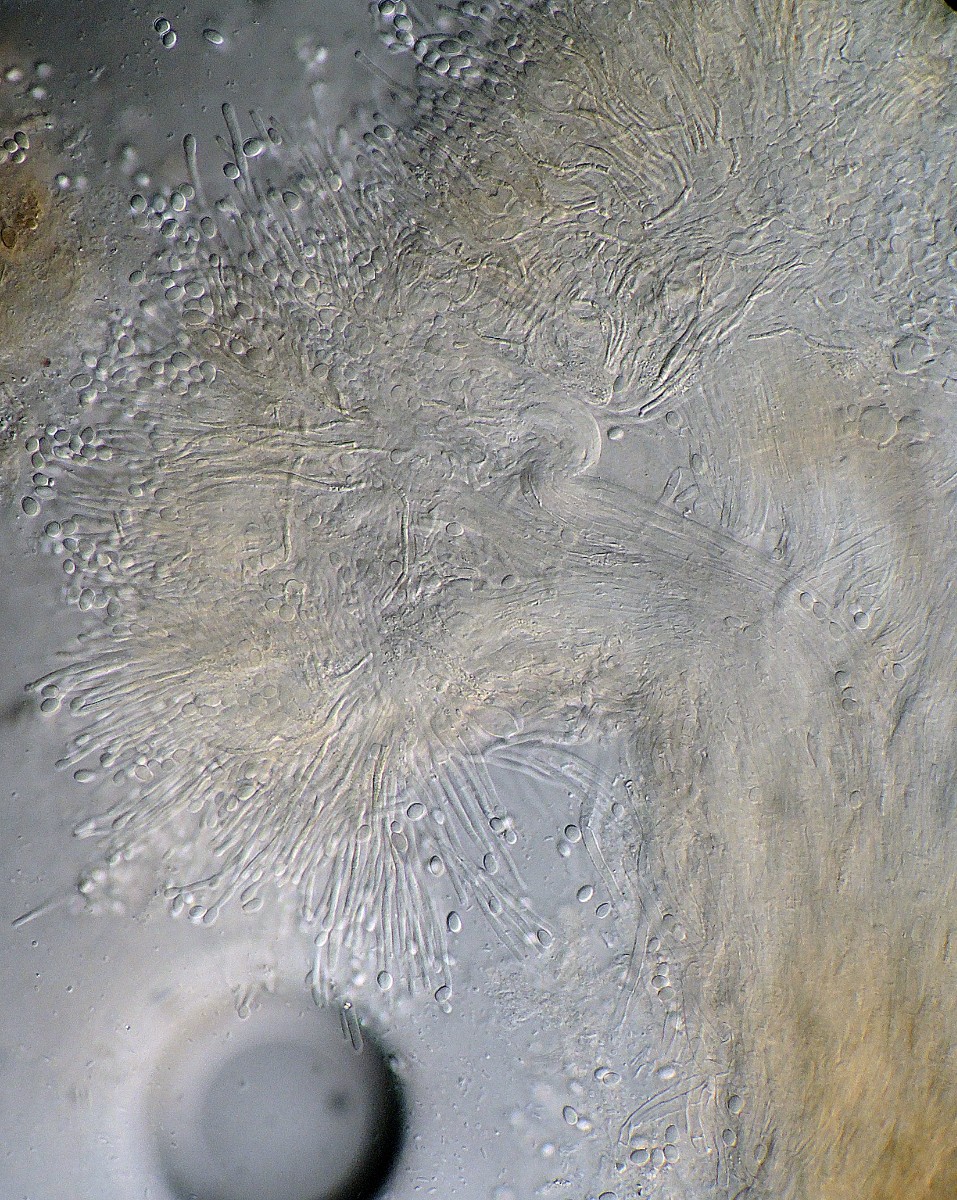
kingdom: Fungi
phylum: Ascomycota
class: Sordariomycetes
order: Hypocreales
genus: Stilbella
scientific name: Stilbella fimetaria
